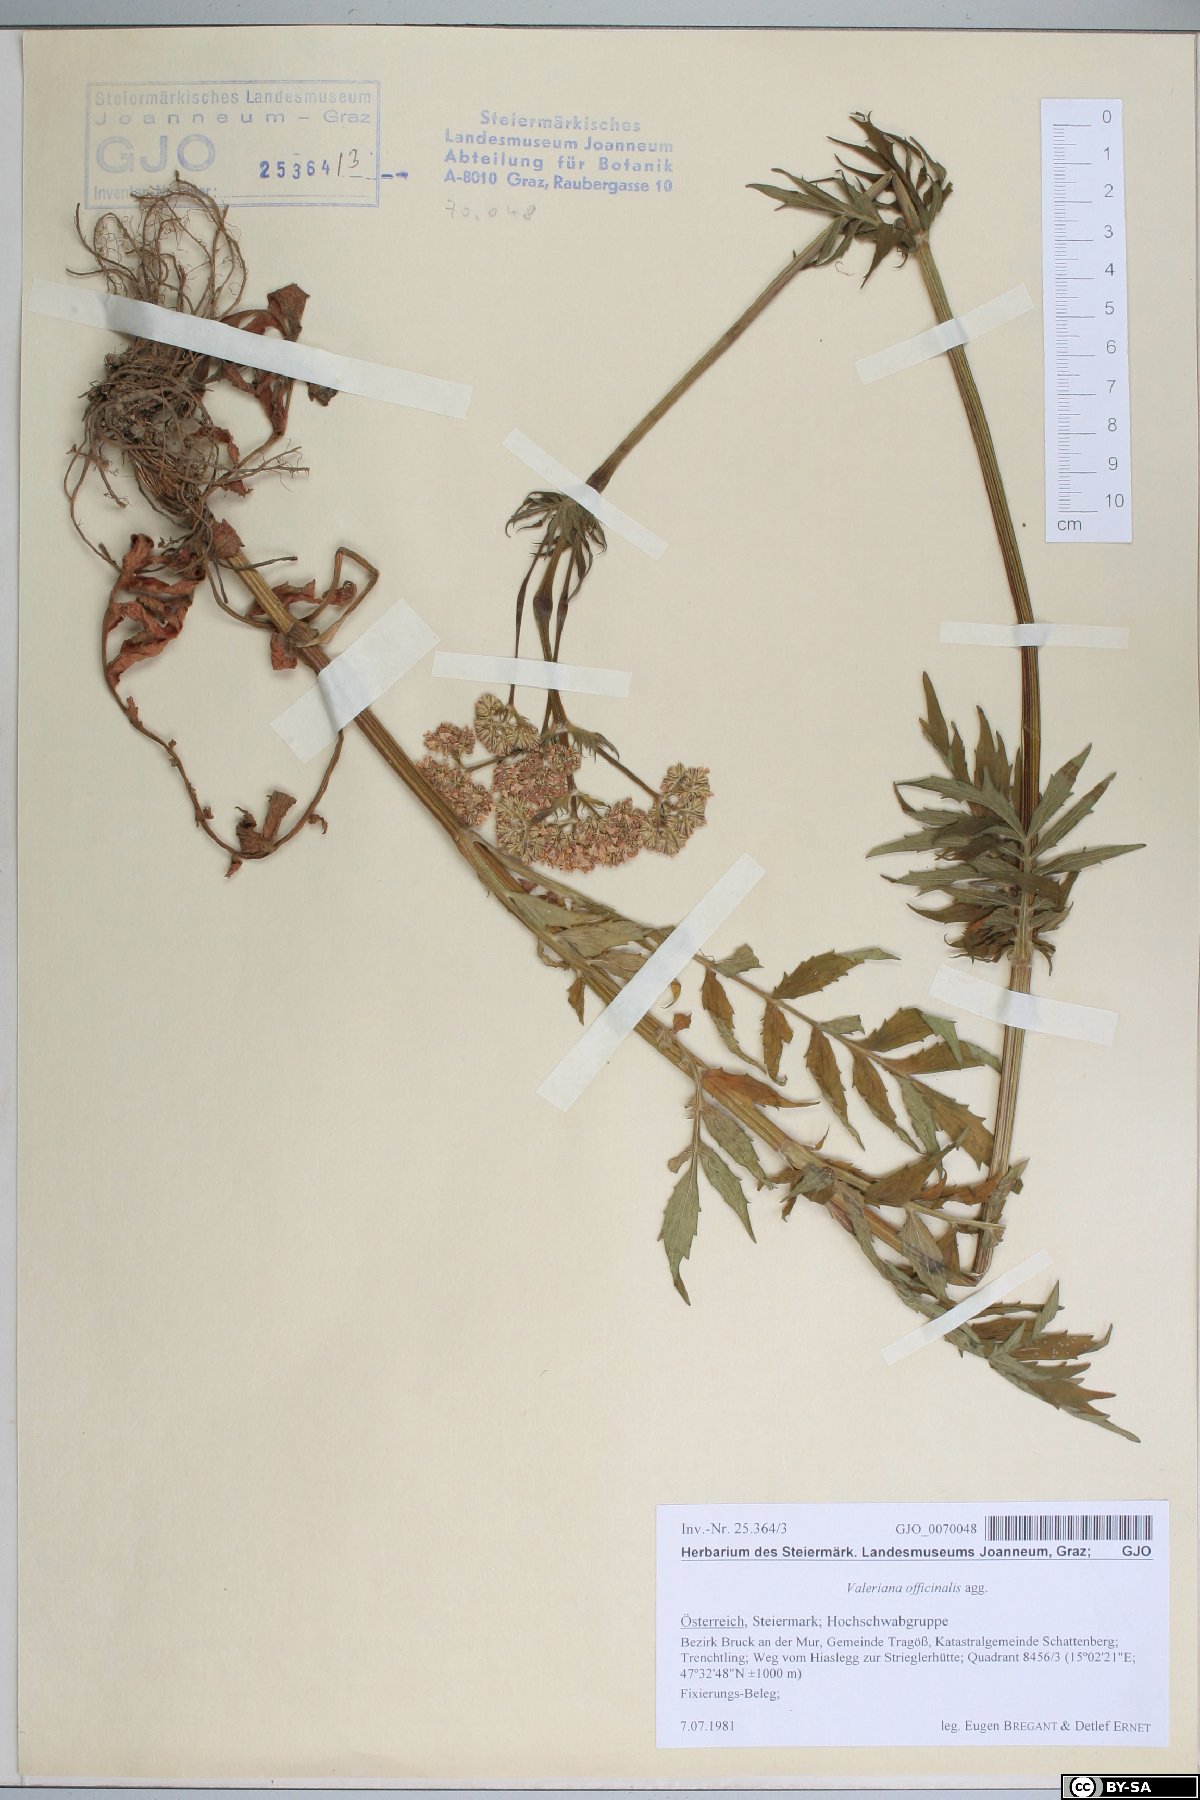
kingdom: Plantae
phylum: Tracheophyta
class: Magnoliopsida
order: Dipsacales
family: Caprifoliaceae
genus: Valeriana
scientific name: Valeriana officinalis
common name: Common valerian
